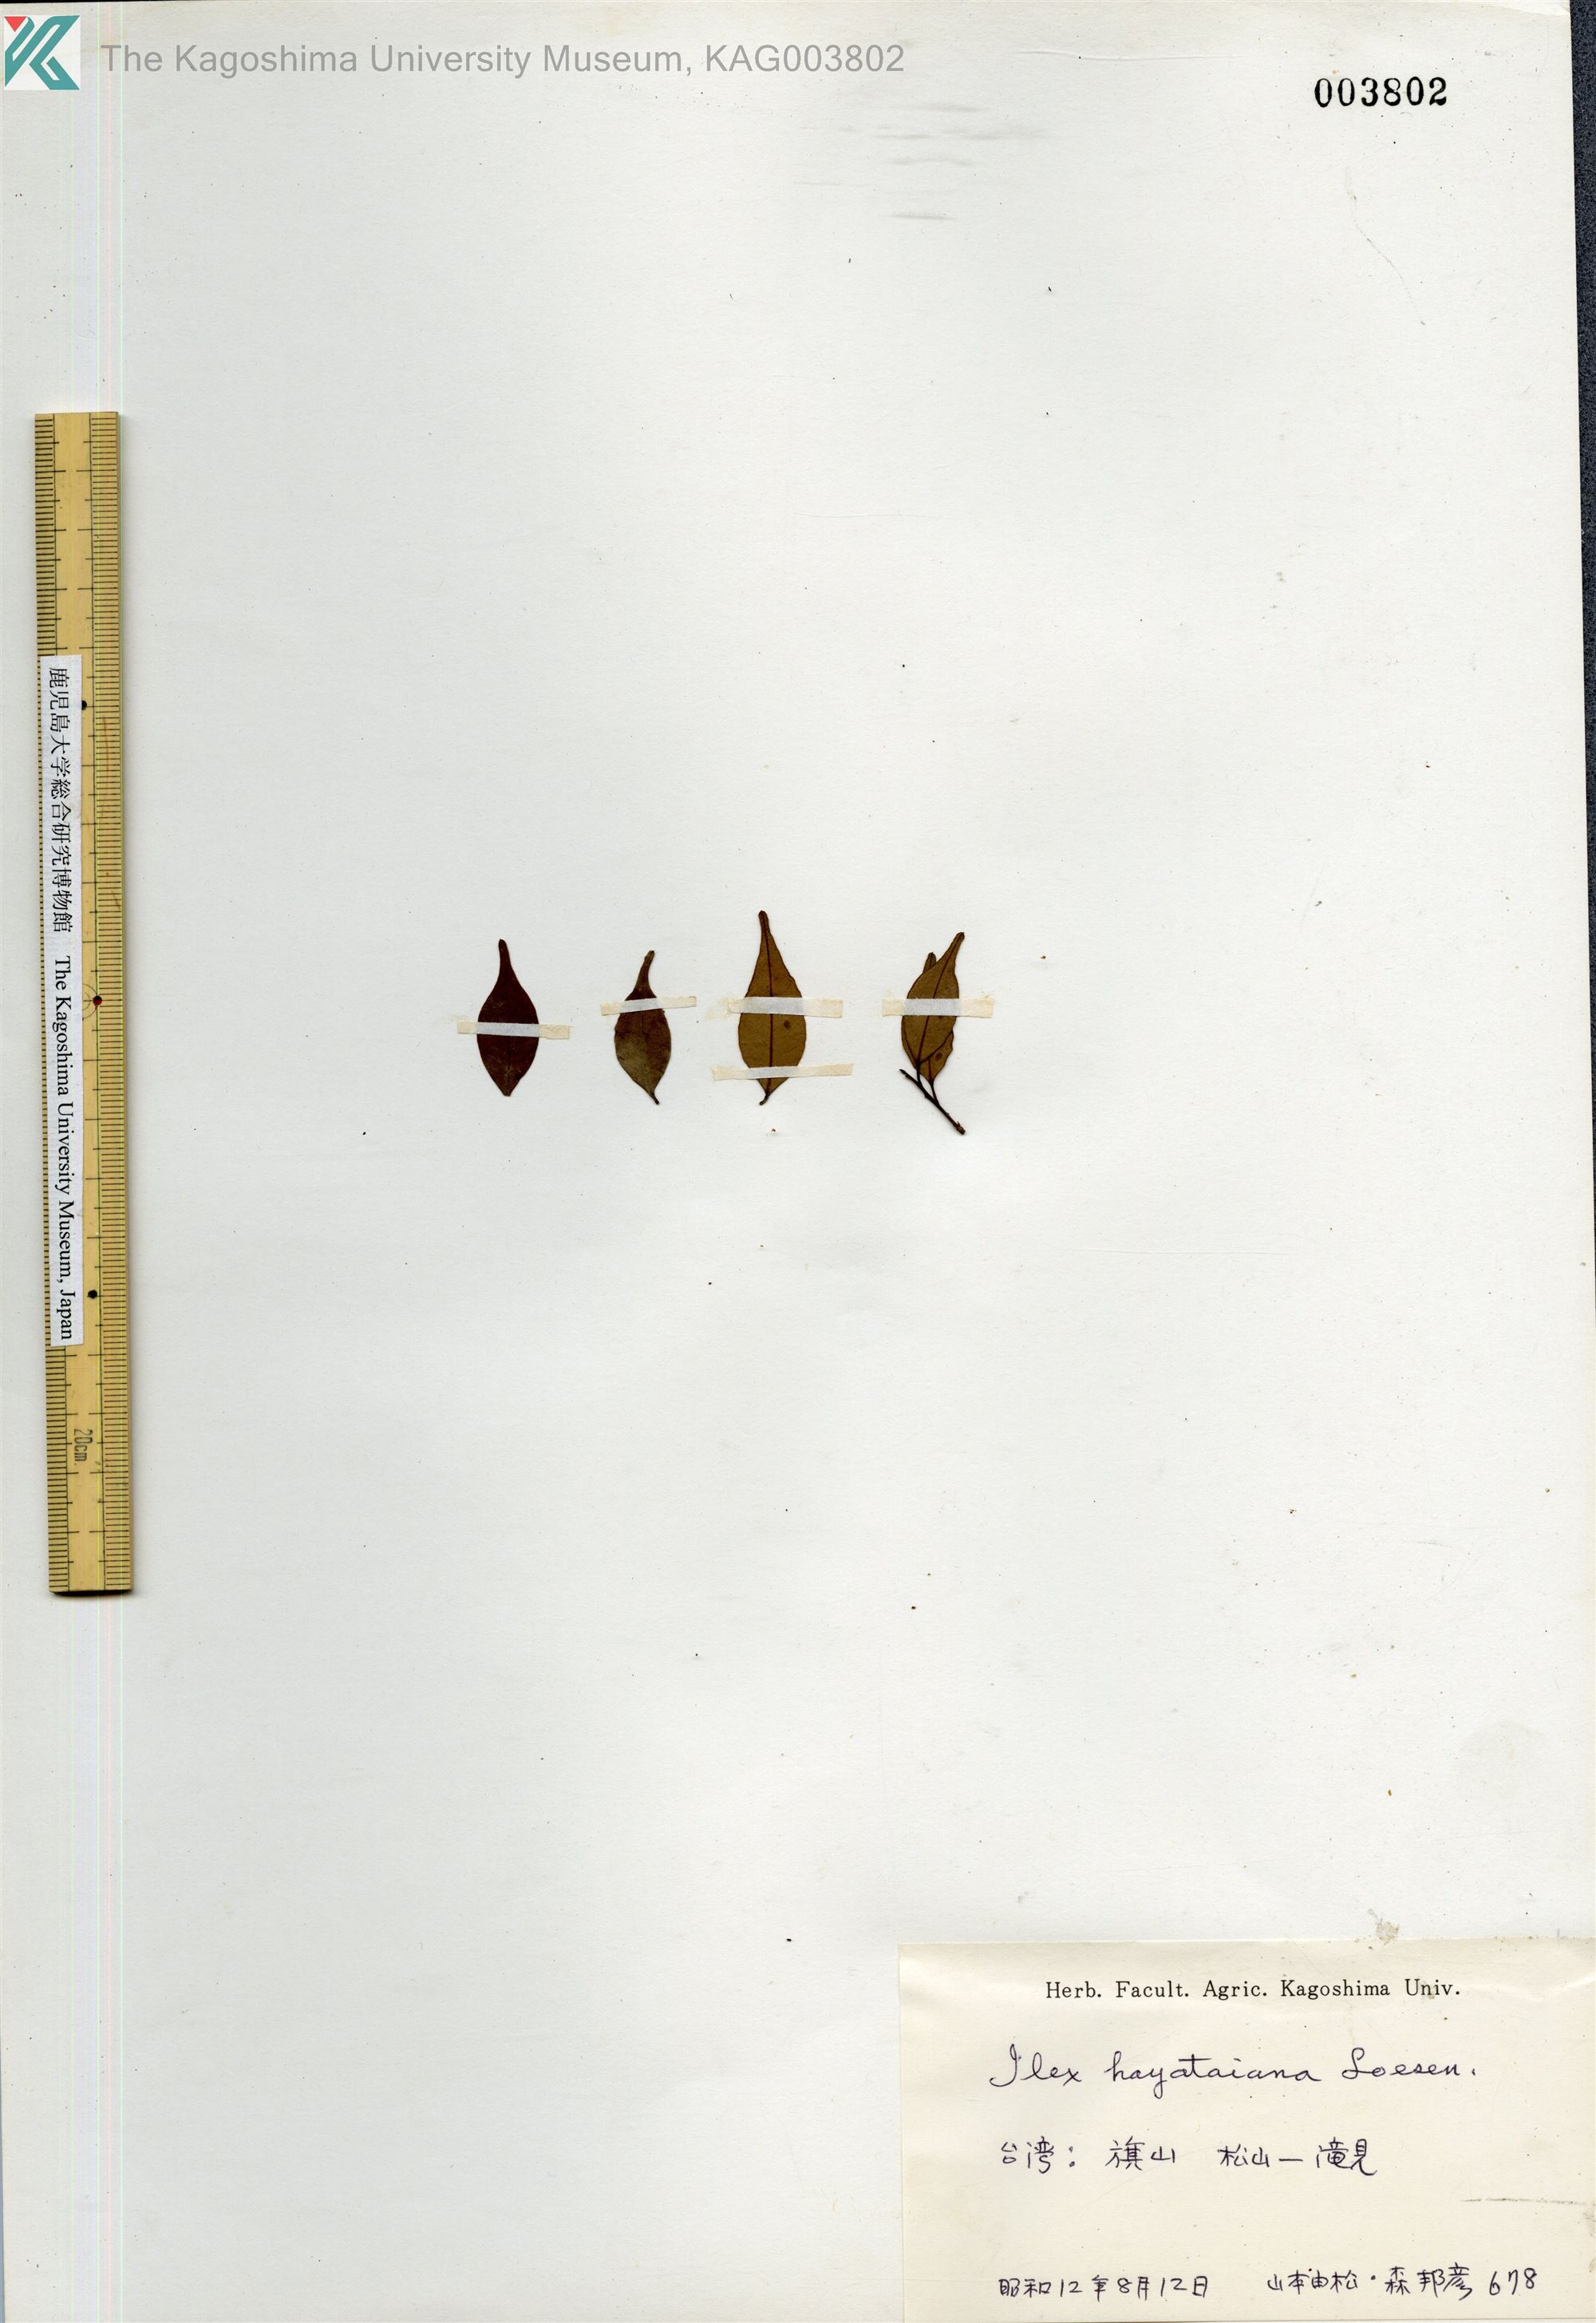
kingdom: Plantae
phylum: Tracheophyta
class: Magnoliopsida
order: Aquifoliales
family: Aquifoliaceae
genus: Ilex
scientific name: Ilex hayataiana
